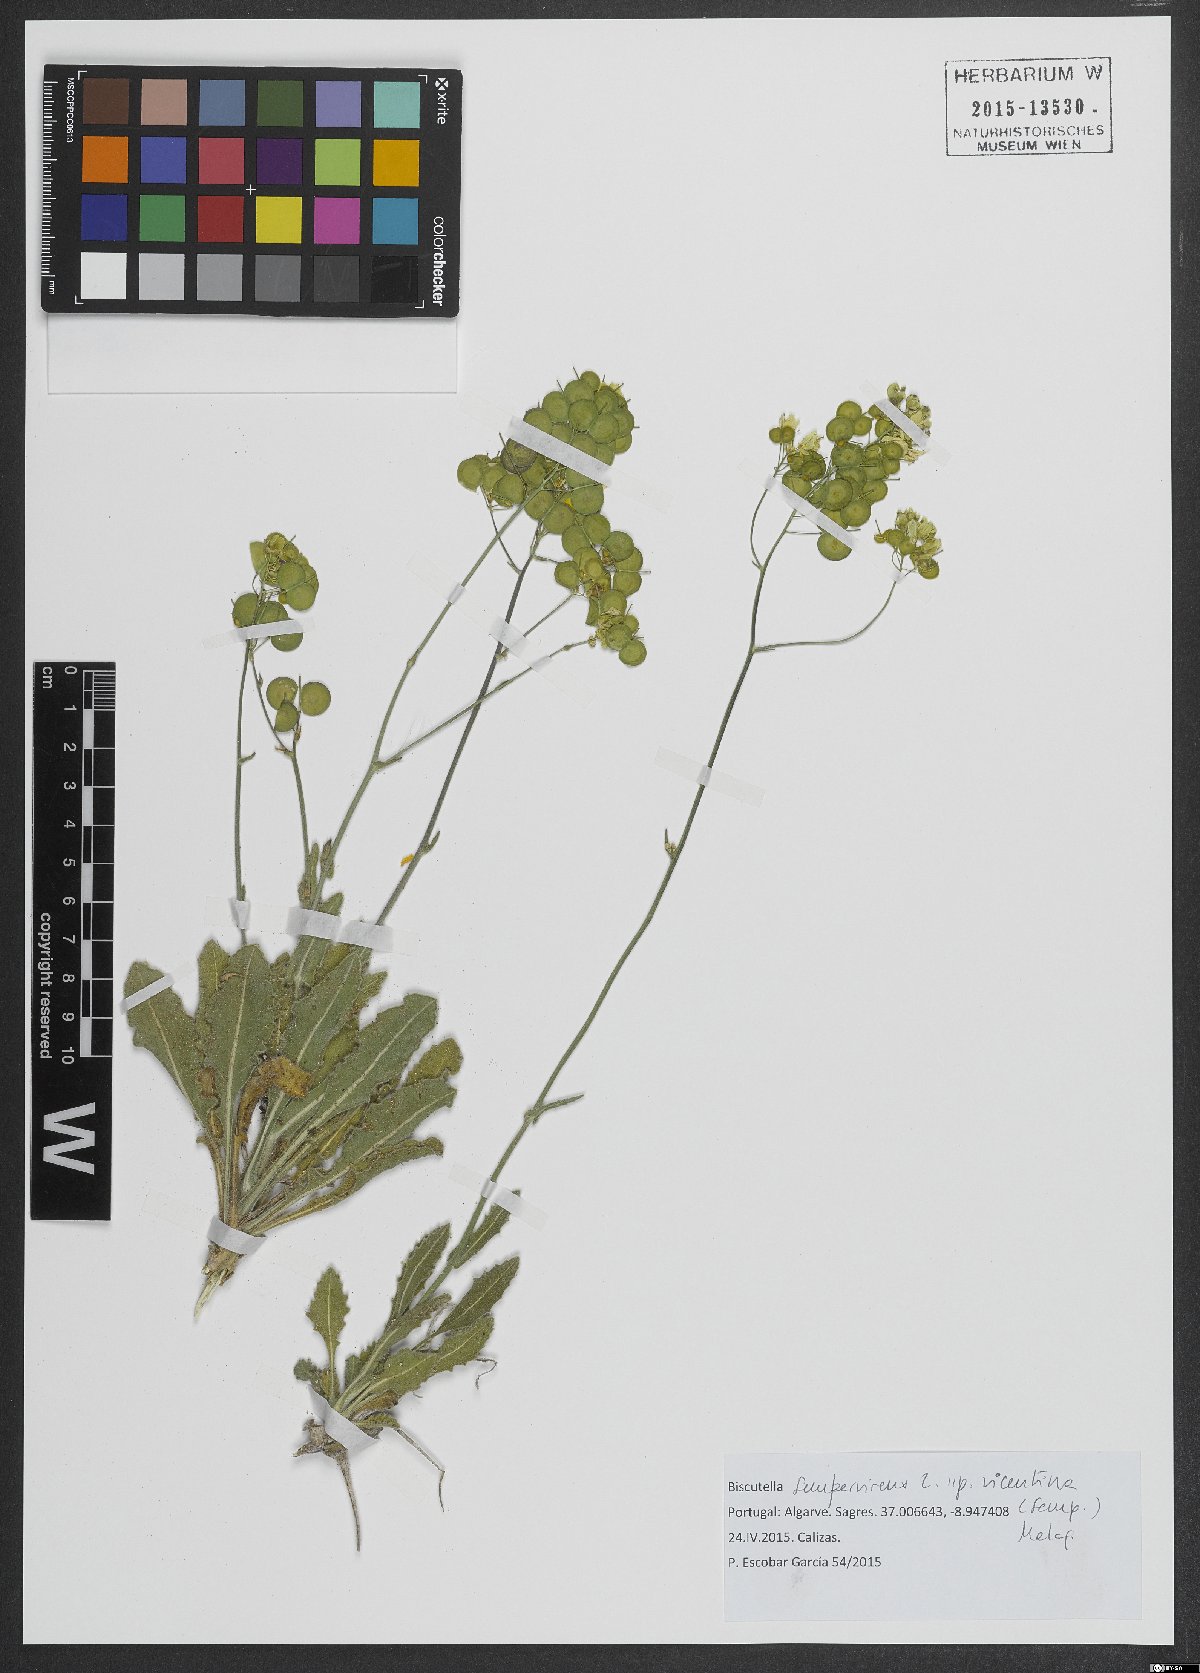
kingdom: Plantae
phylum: Tracheophyta
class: Magnoliopsida
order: Brassicales
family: Brassicaceae
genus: Biscutella
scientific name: Biscutella sempervirens
